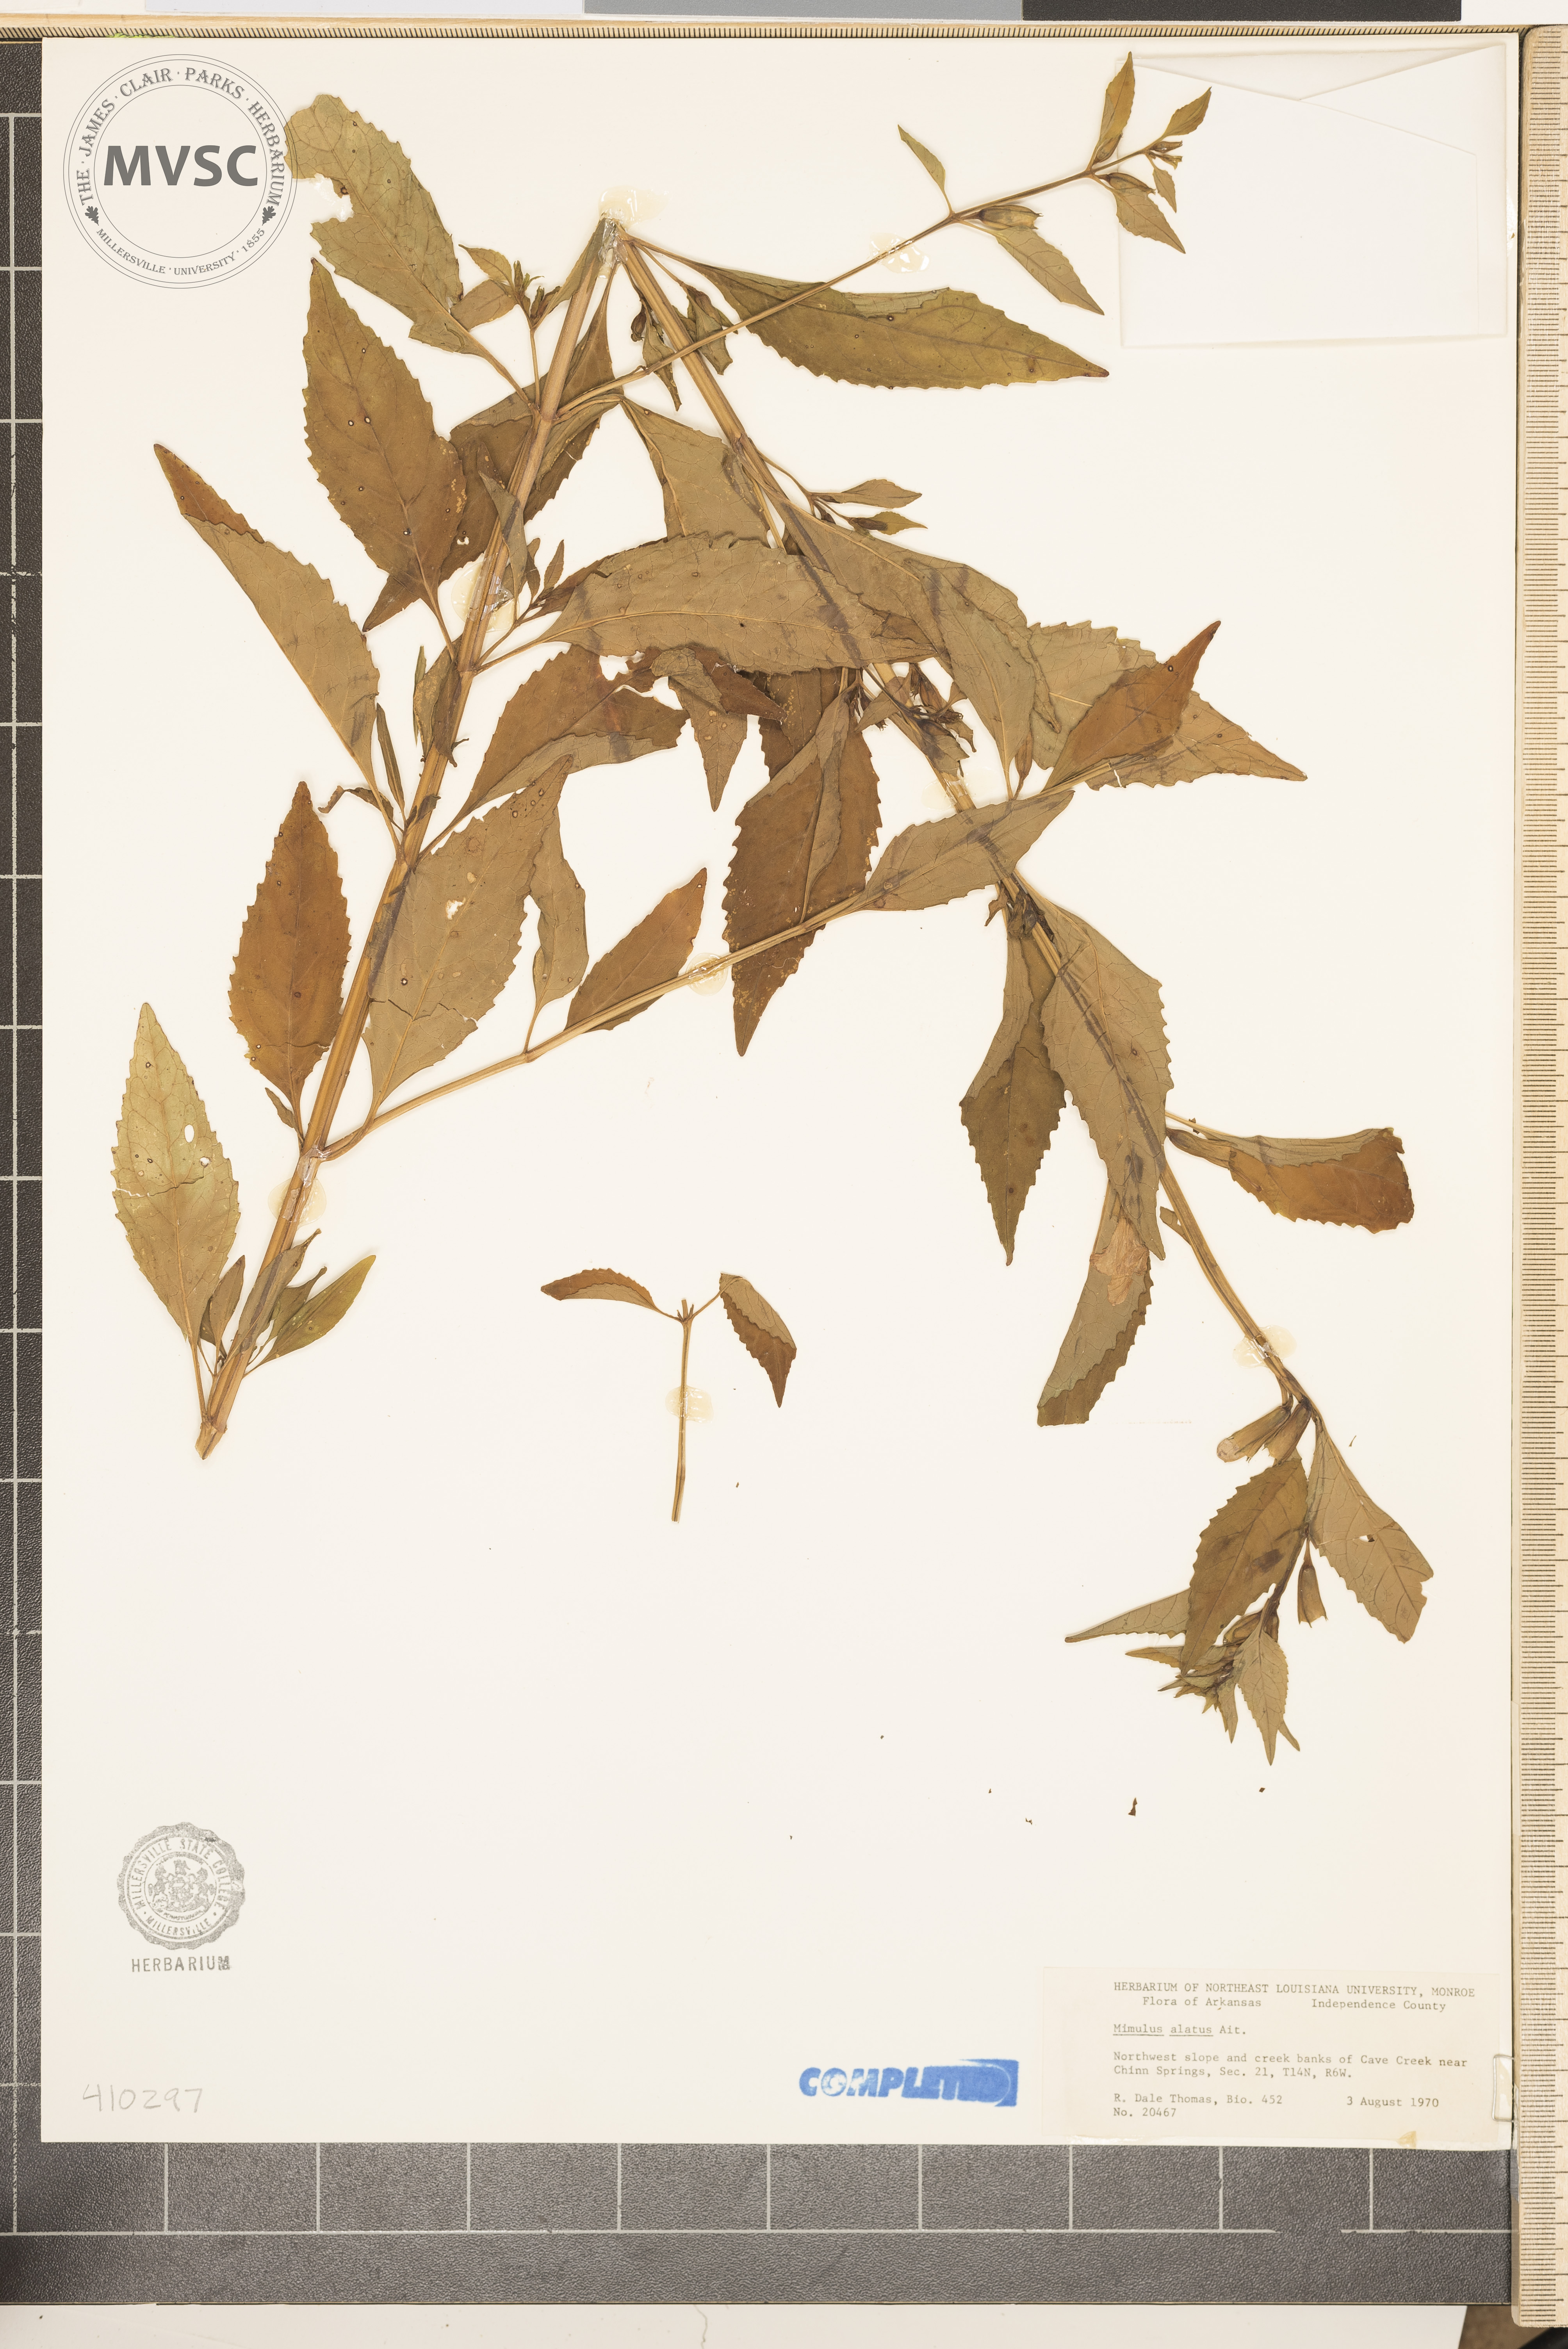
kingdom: Plantae
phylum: Tracheophyta
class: Magnoliopsida
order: Lamiales
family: Phrymaceae
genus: Mimulus
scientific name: Mimulus alatus
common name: Sharp-wing monkey-flower
